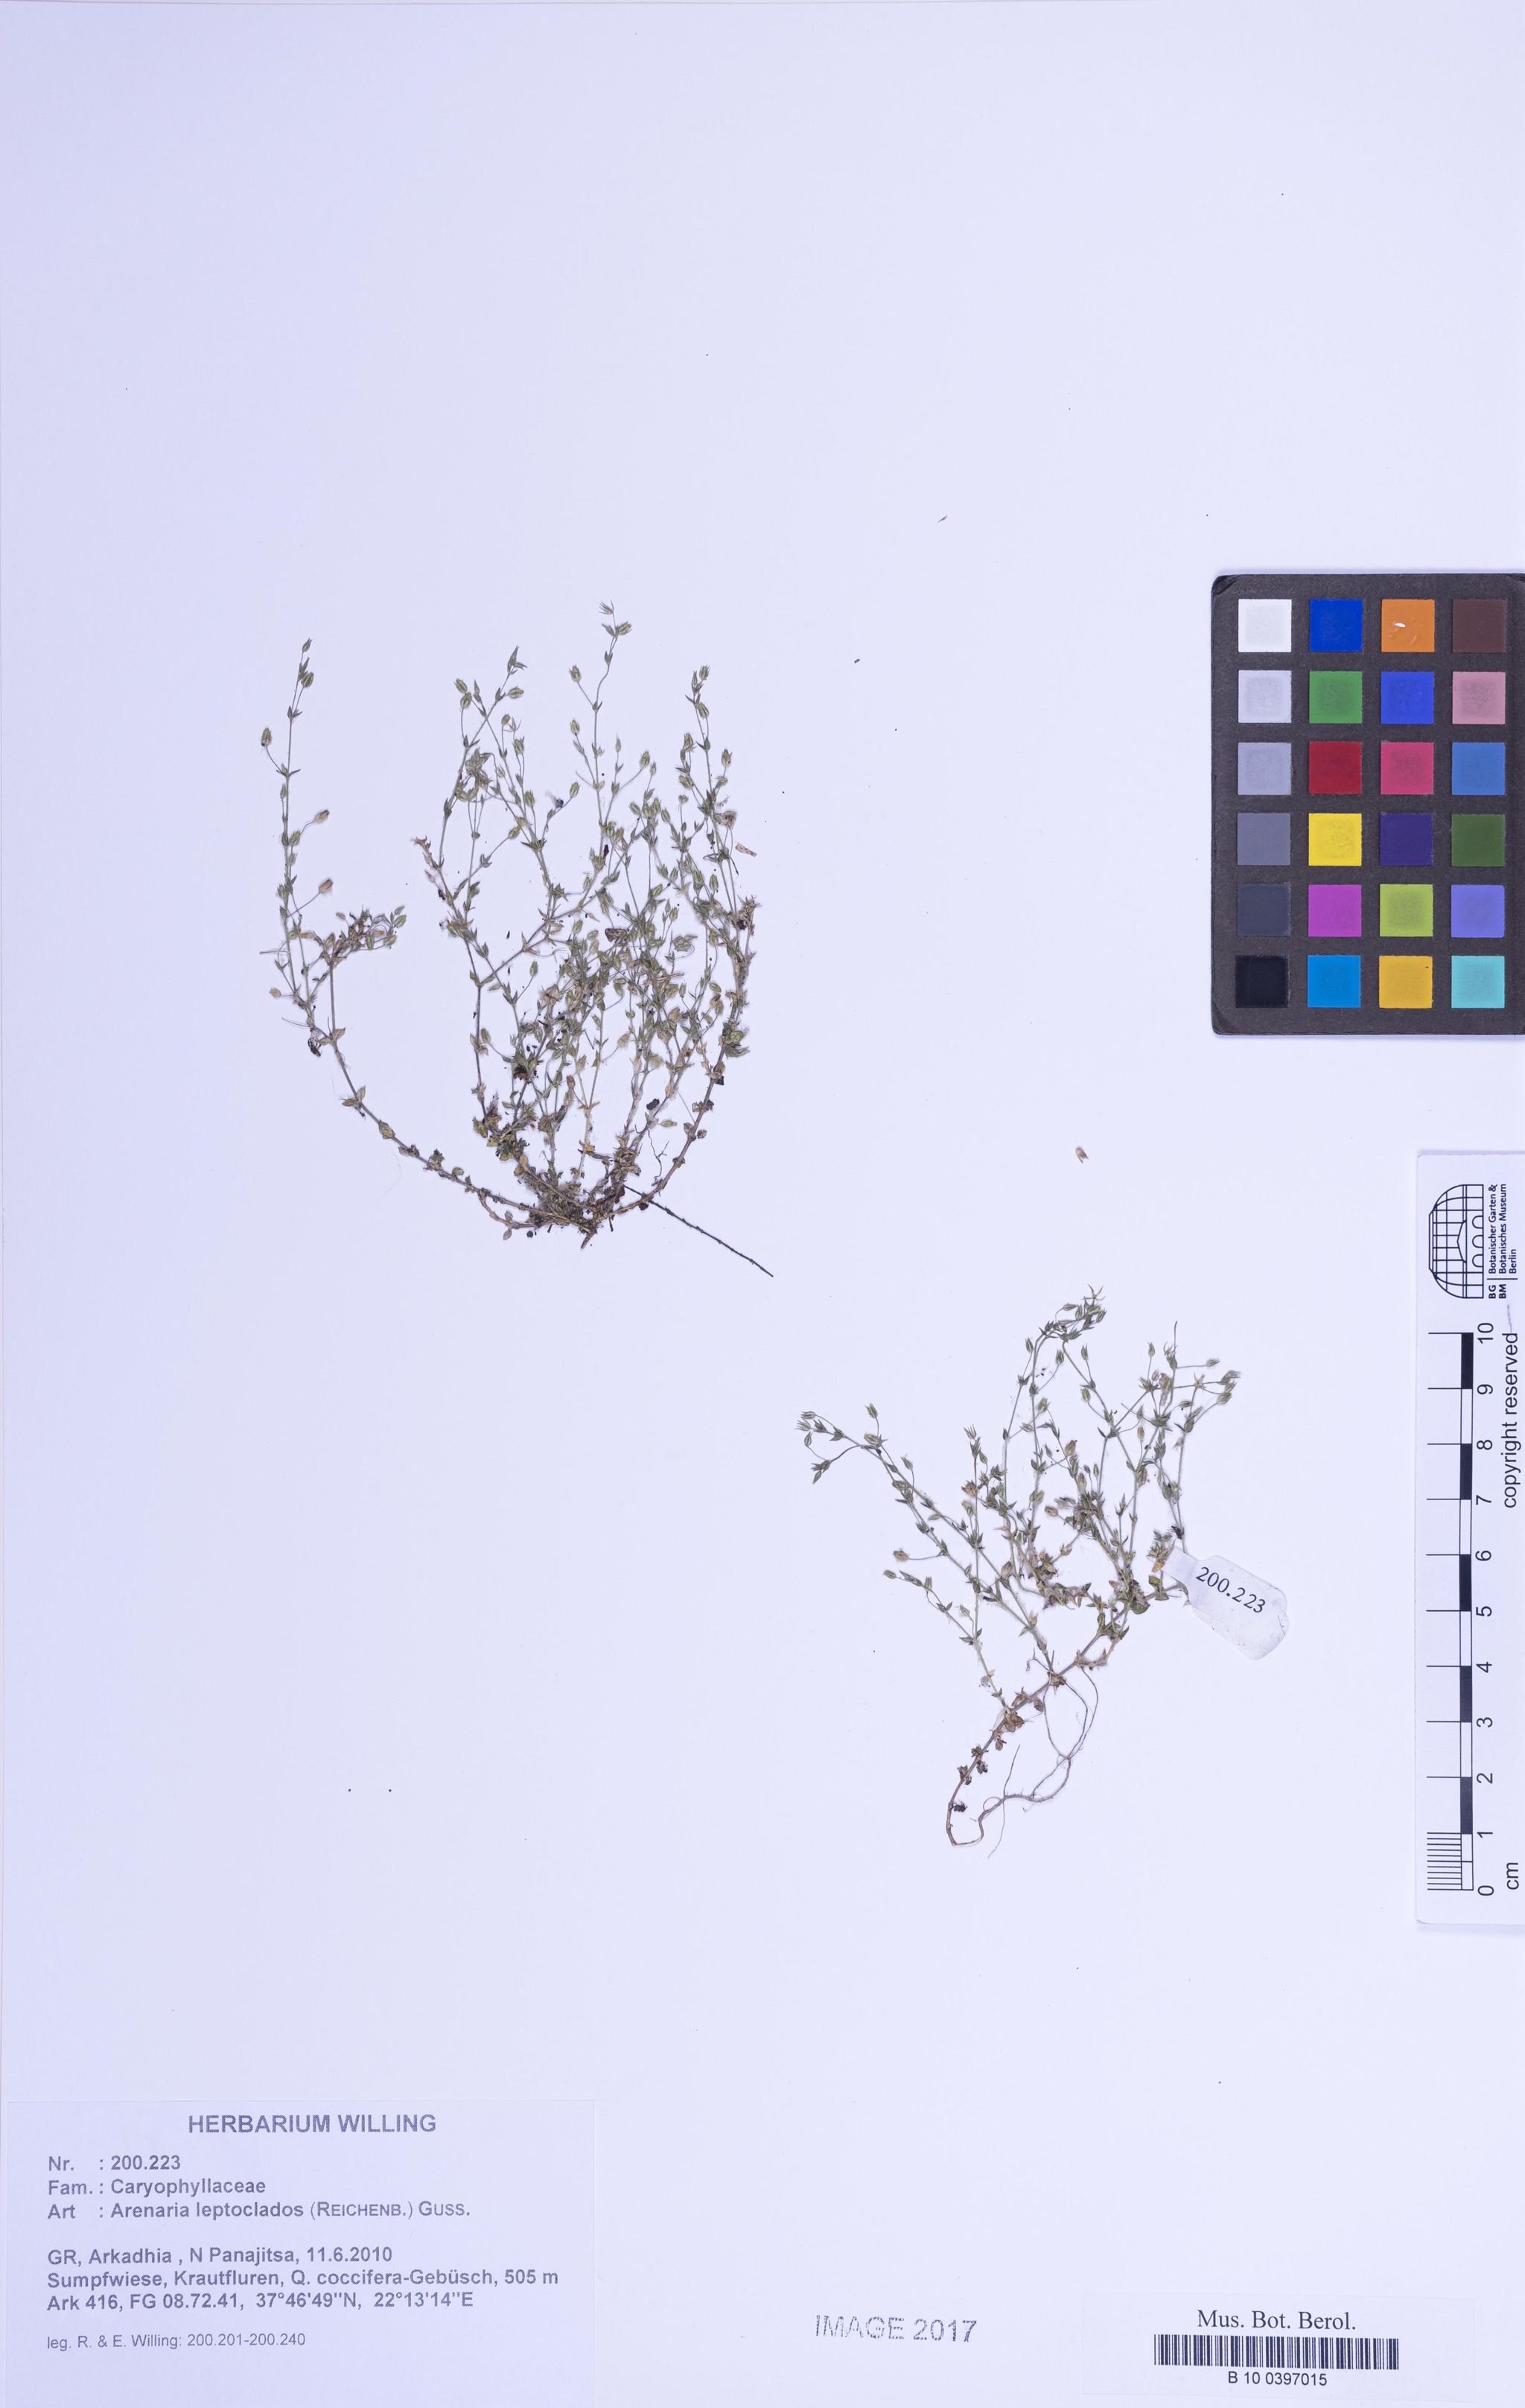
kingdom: Plantae
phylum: Tracheophyta
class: Magnoliopsida
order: Caryophyllales
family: Caryophyllaceae
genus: Arenaria
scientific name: Arenaria leptoclados
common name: Thyme-leaved sandwort
